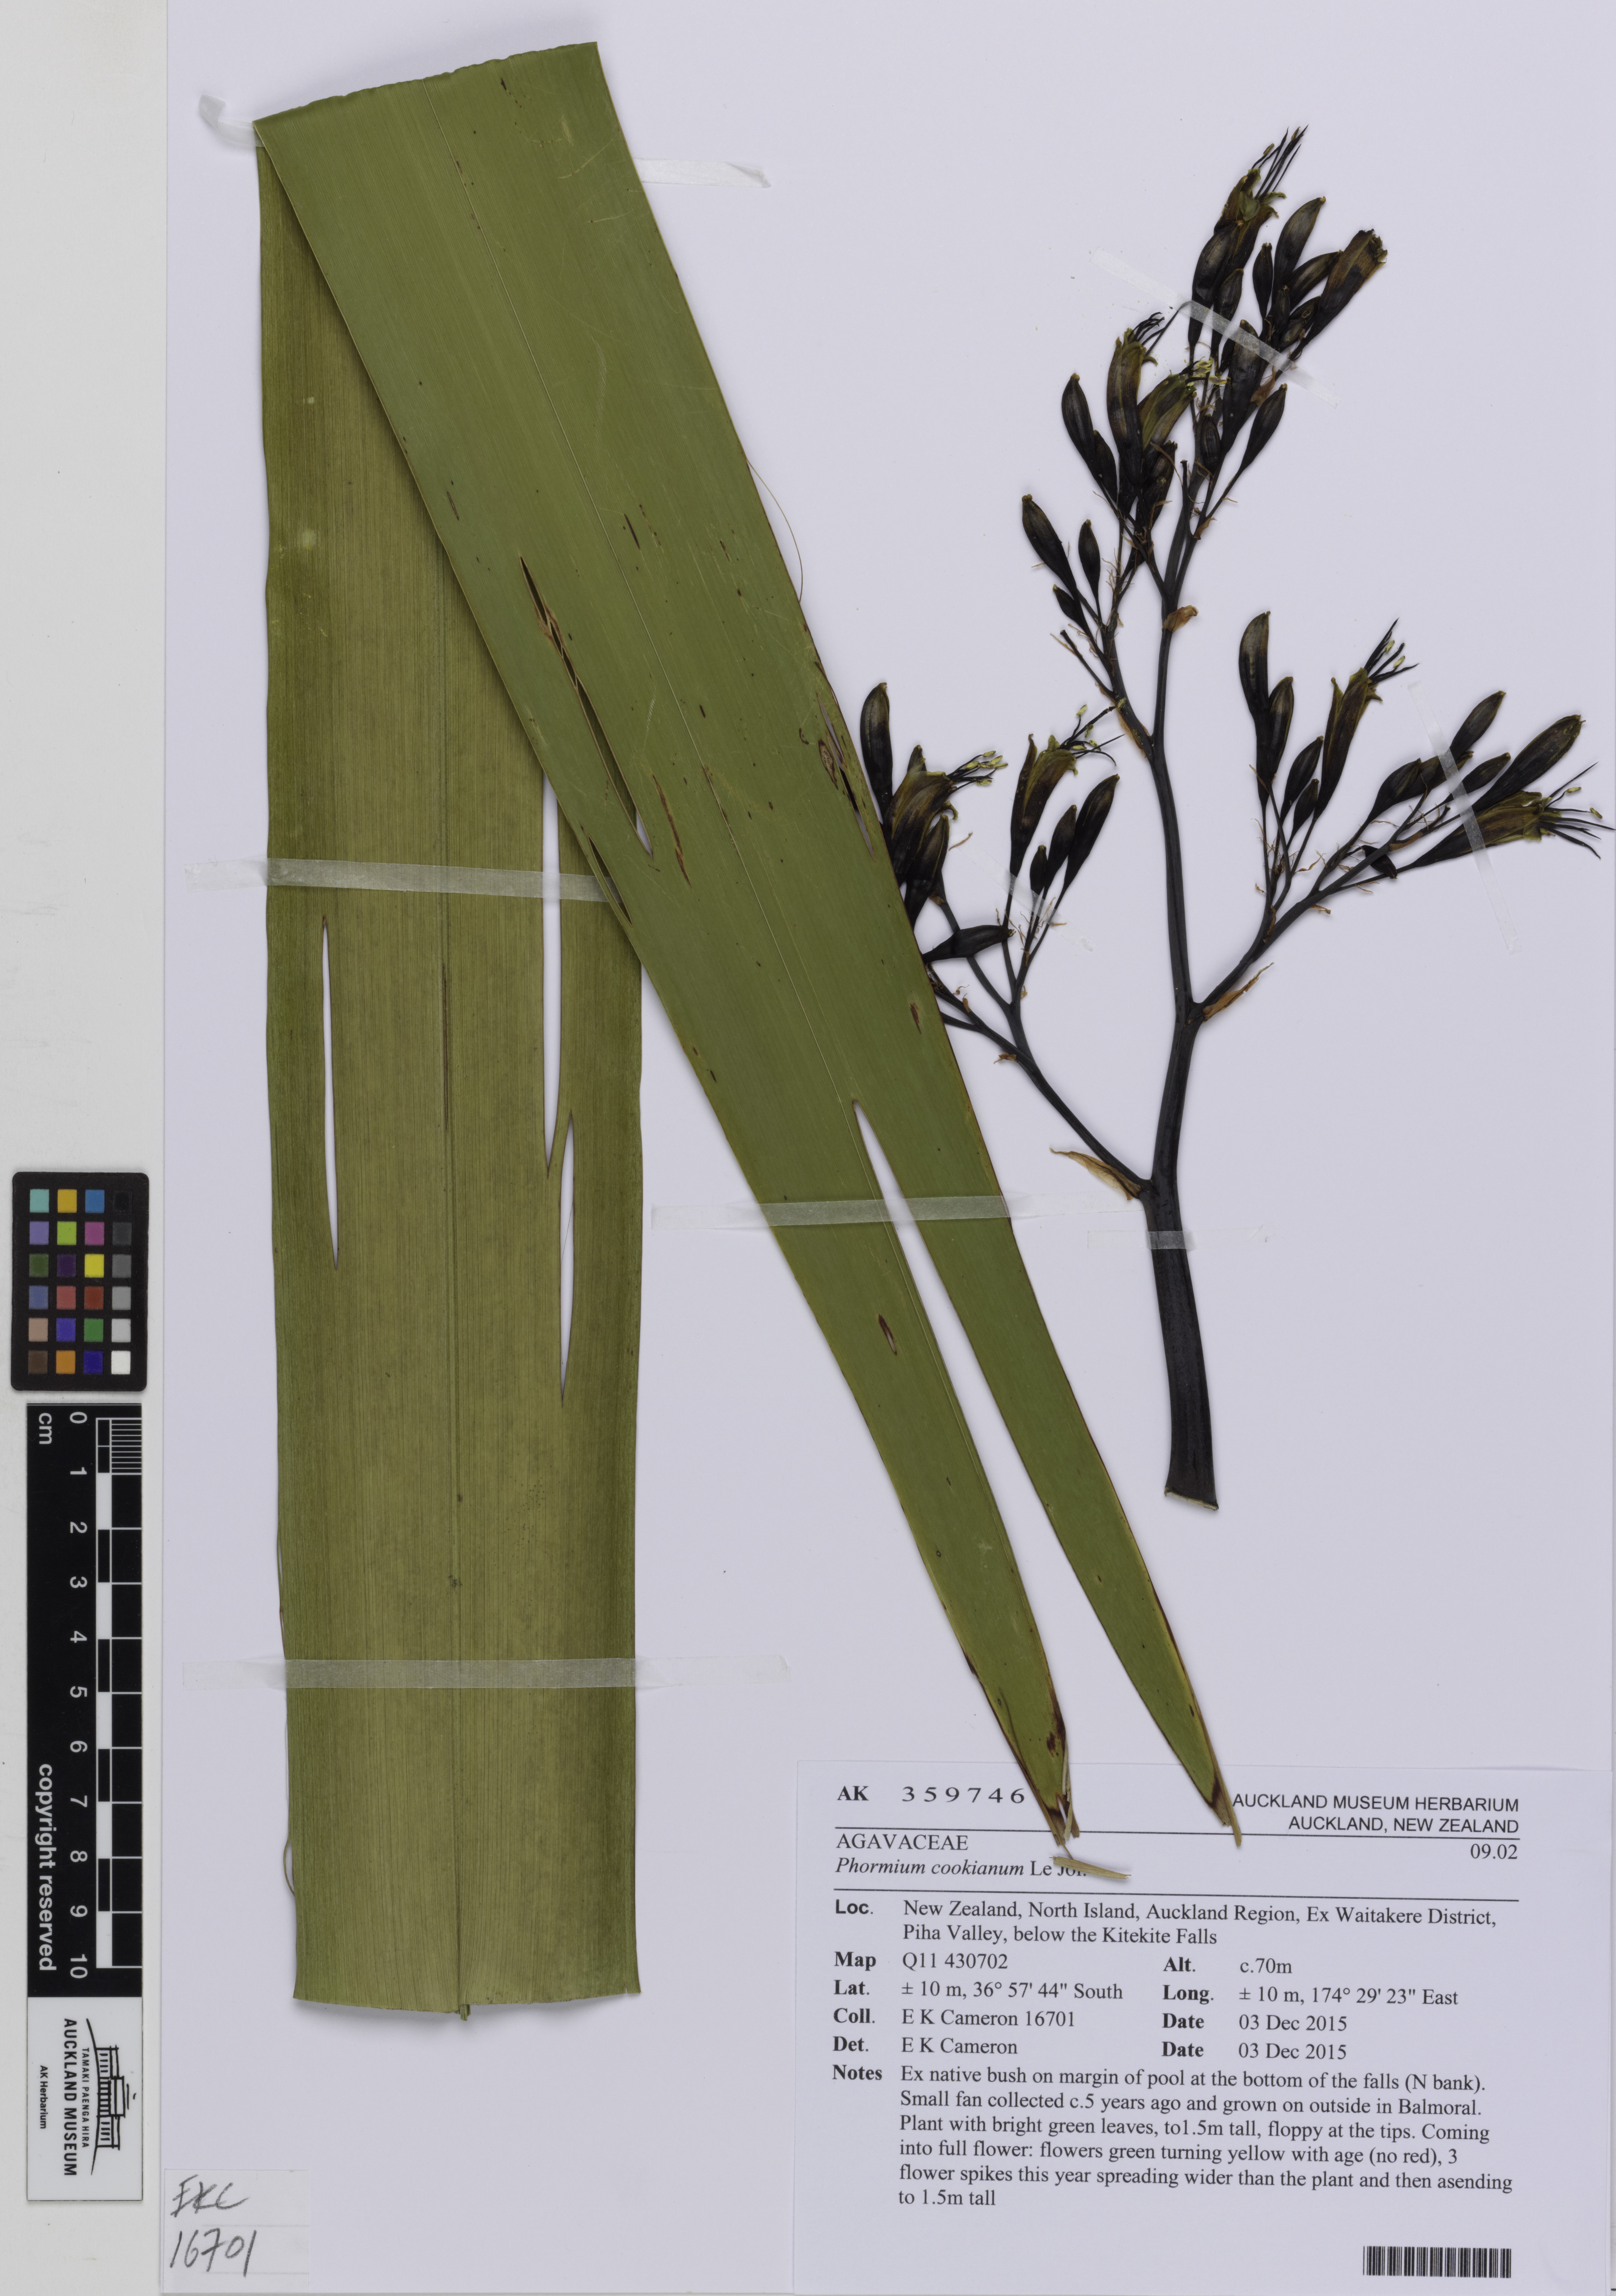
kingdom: Plantae
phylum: Tracheophyta
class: Liliopsida
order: Asparagales
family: Asphodelaceae
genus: Phormium
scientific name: Phormium colensoi
